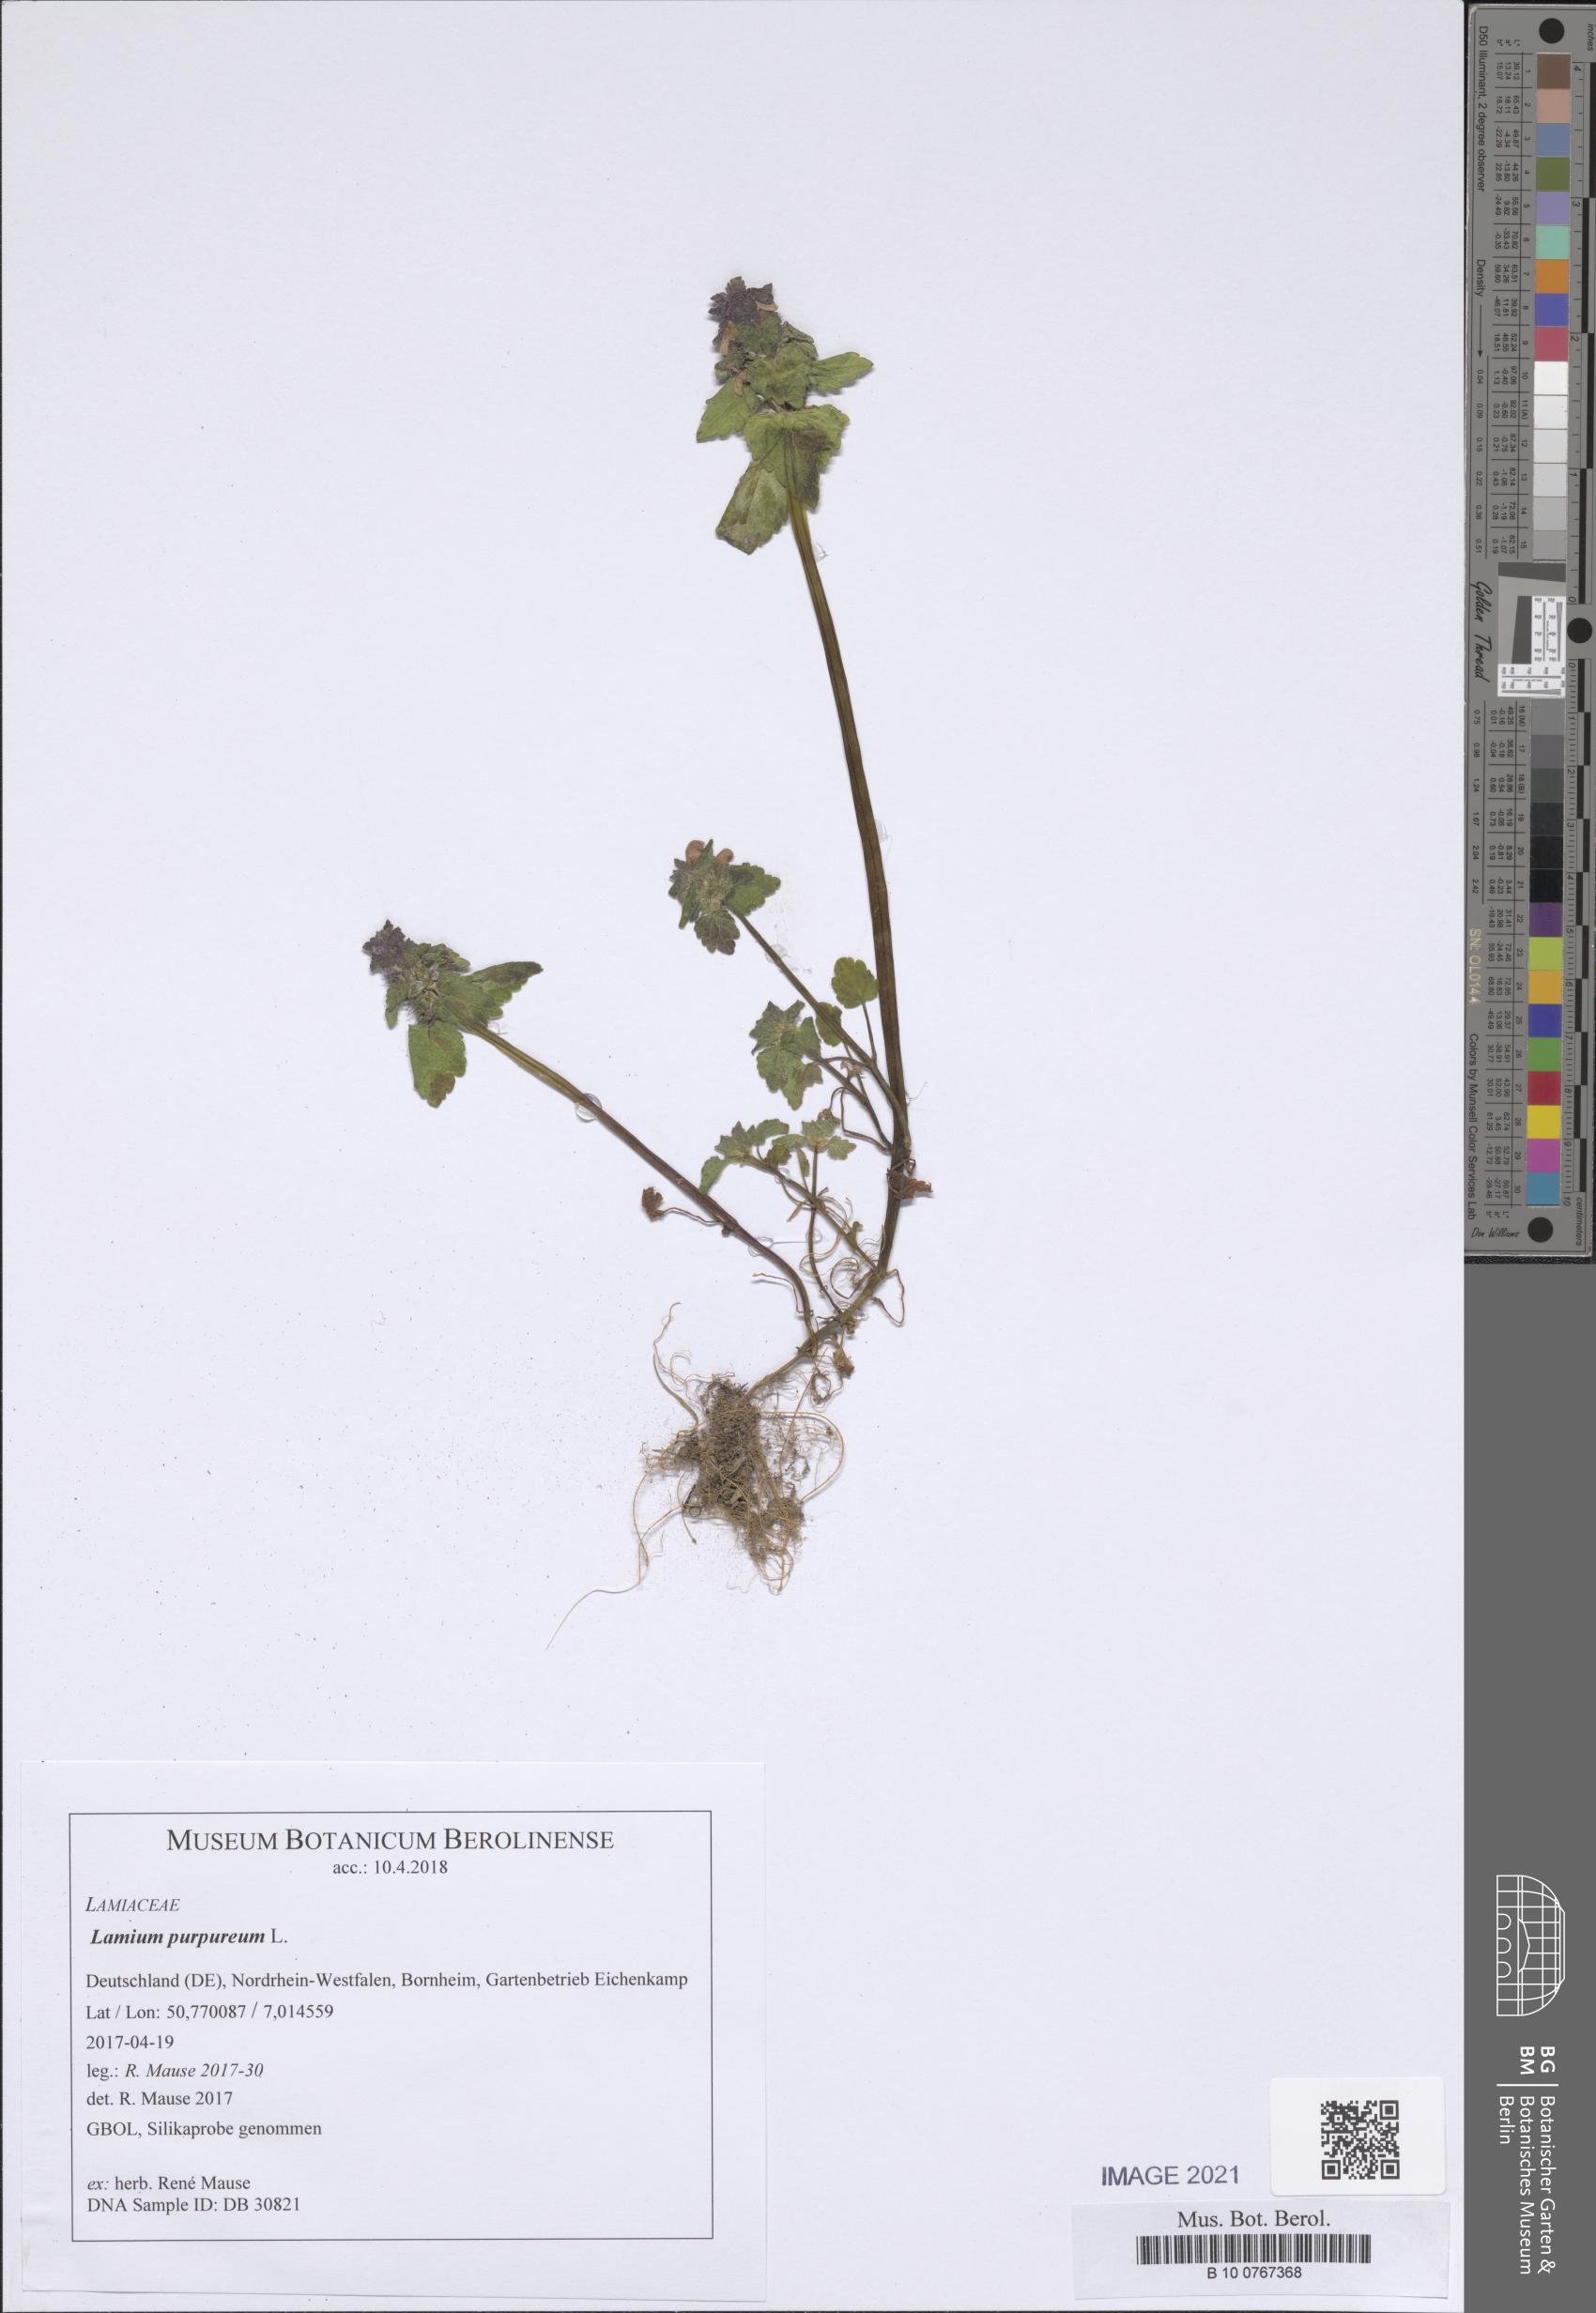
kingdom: Plantae
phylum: Tracheophyta
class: Magnoliopsida
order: Lamiales
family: Lamiaceae
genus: Lamium
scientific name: Lamium purpureum
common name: Red dead-nettle
